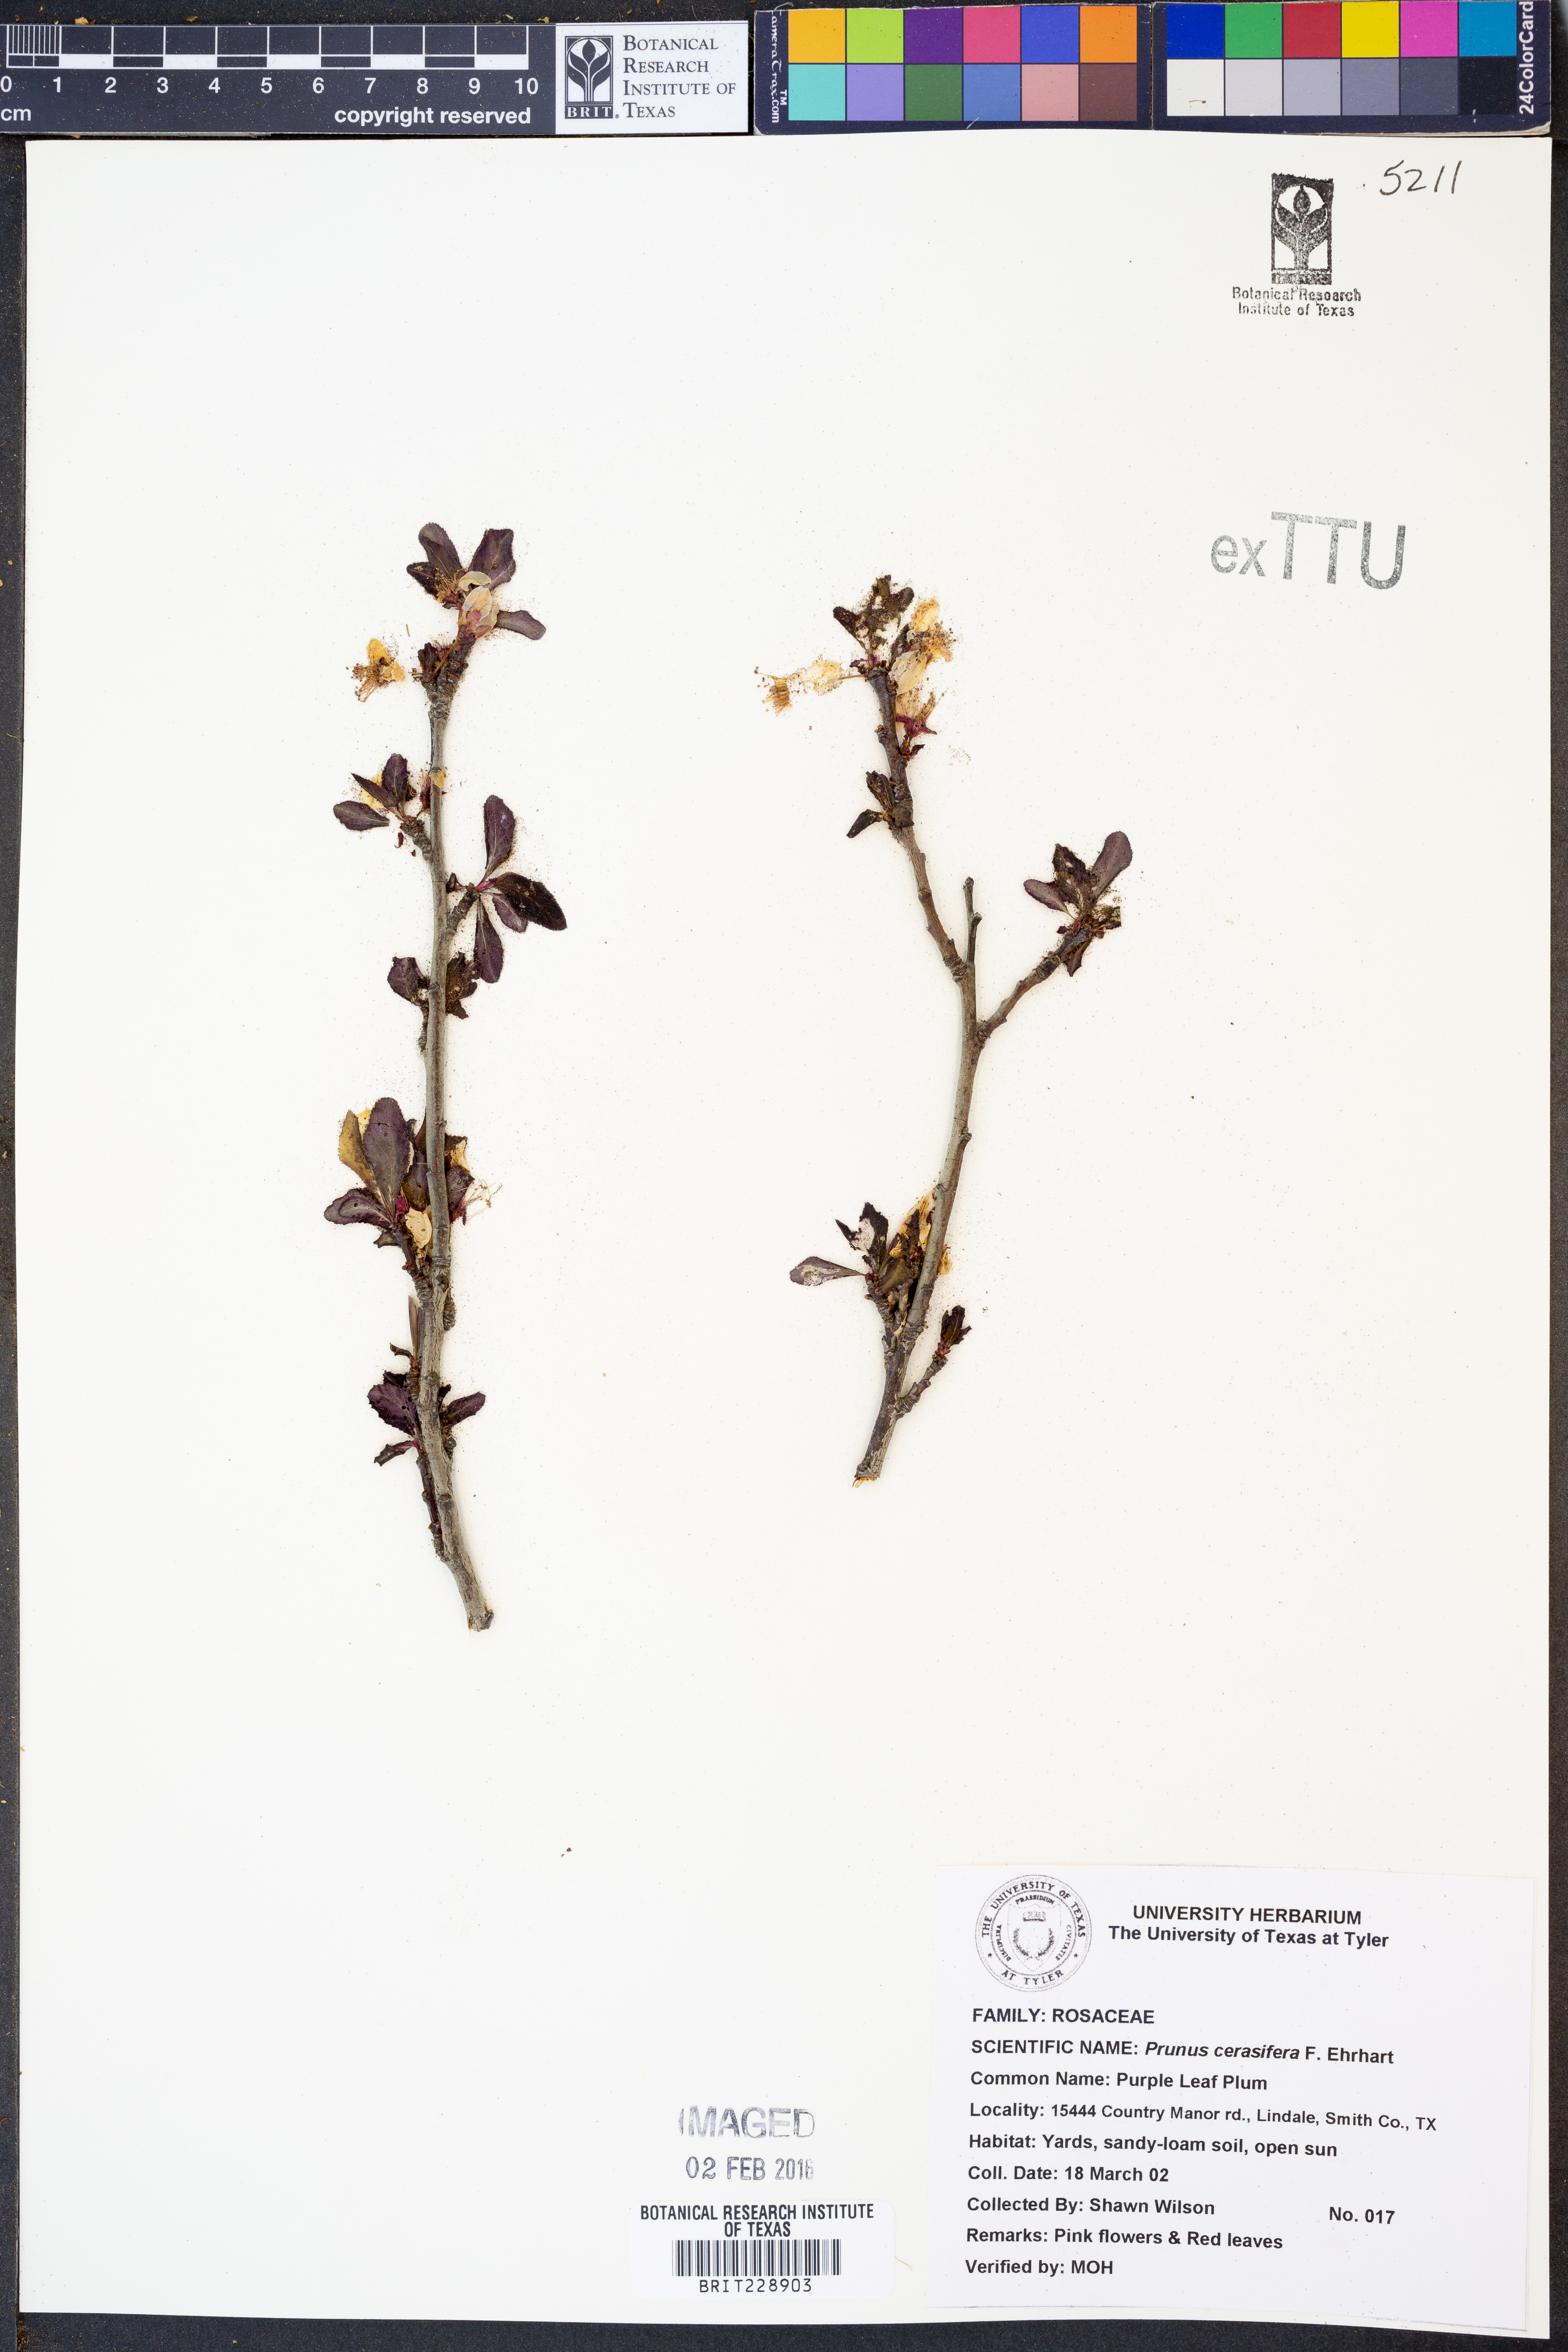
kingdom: Plantae
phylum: Tracheophyta
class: Magnoliopsida
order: Rosales
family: Rosaceae
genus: Prunus
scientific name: Prunus cerasifera
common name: Cherry plum
